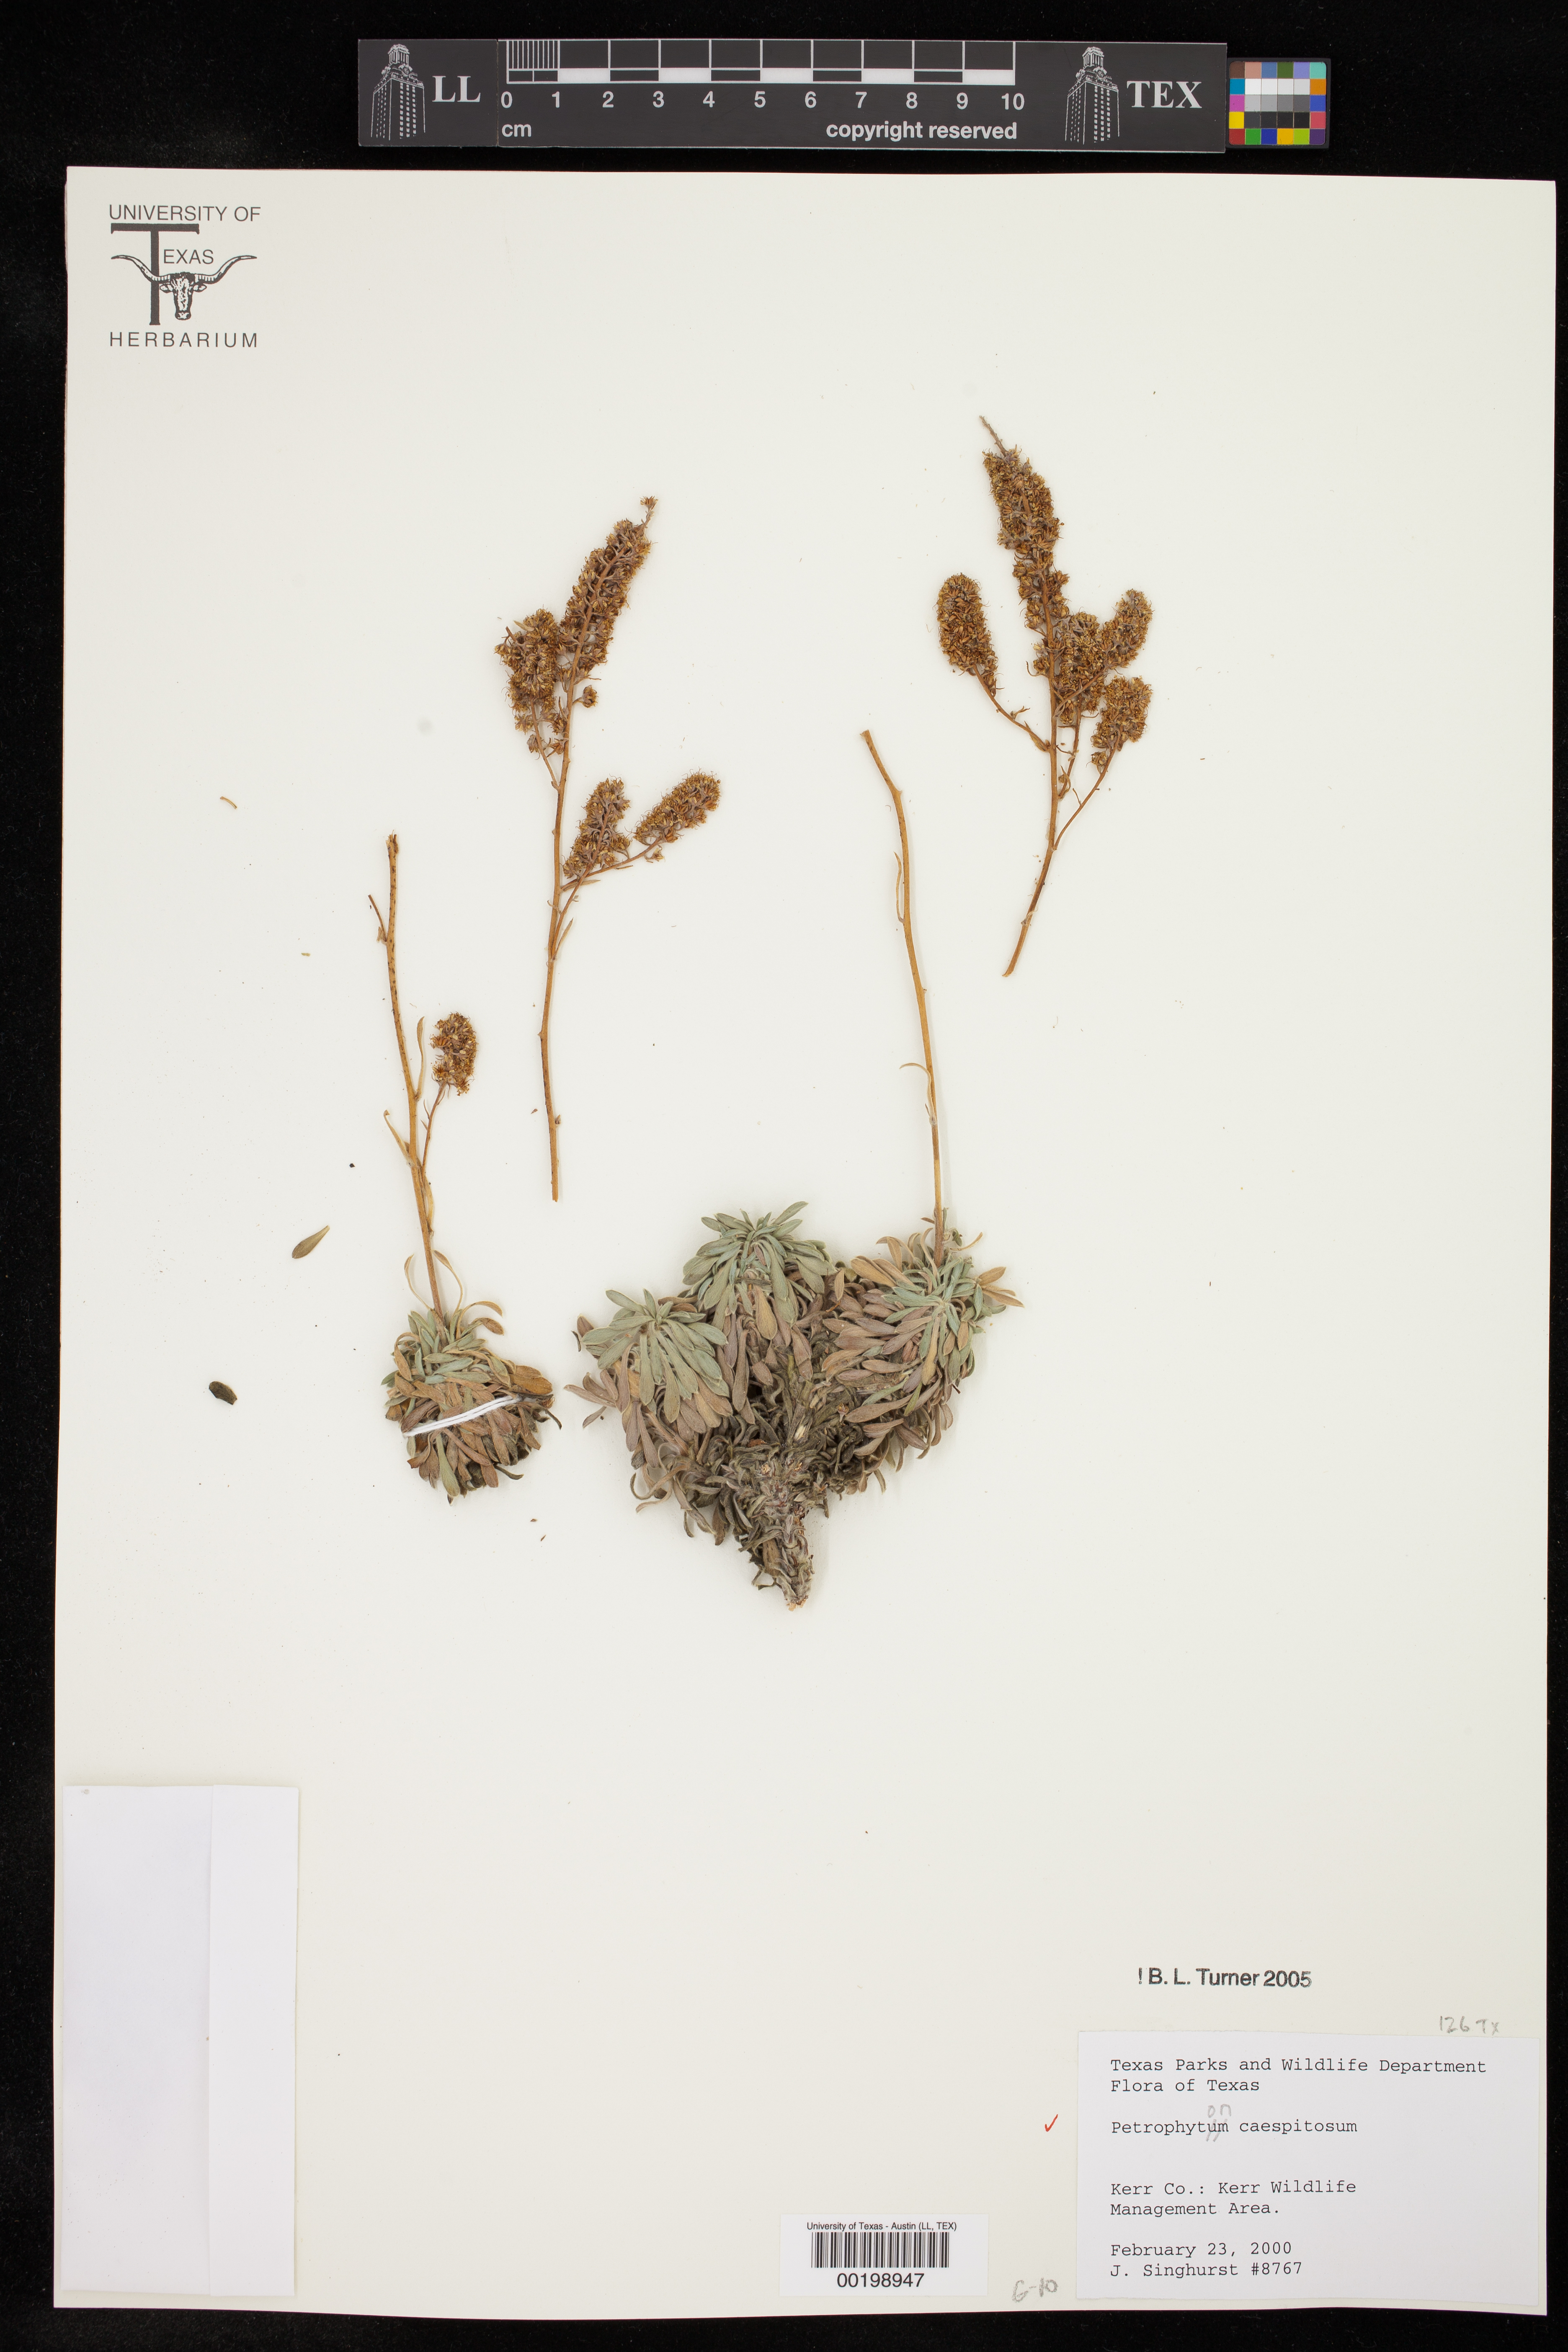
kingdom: Plantae
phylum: Tracheophyta
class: Magnoliopsida
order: Rosales
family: Rosaceae
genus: Petrophytum
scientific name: Petrophytum caespitosum
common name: Mat rockspirea
